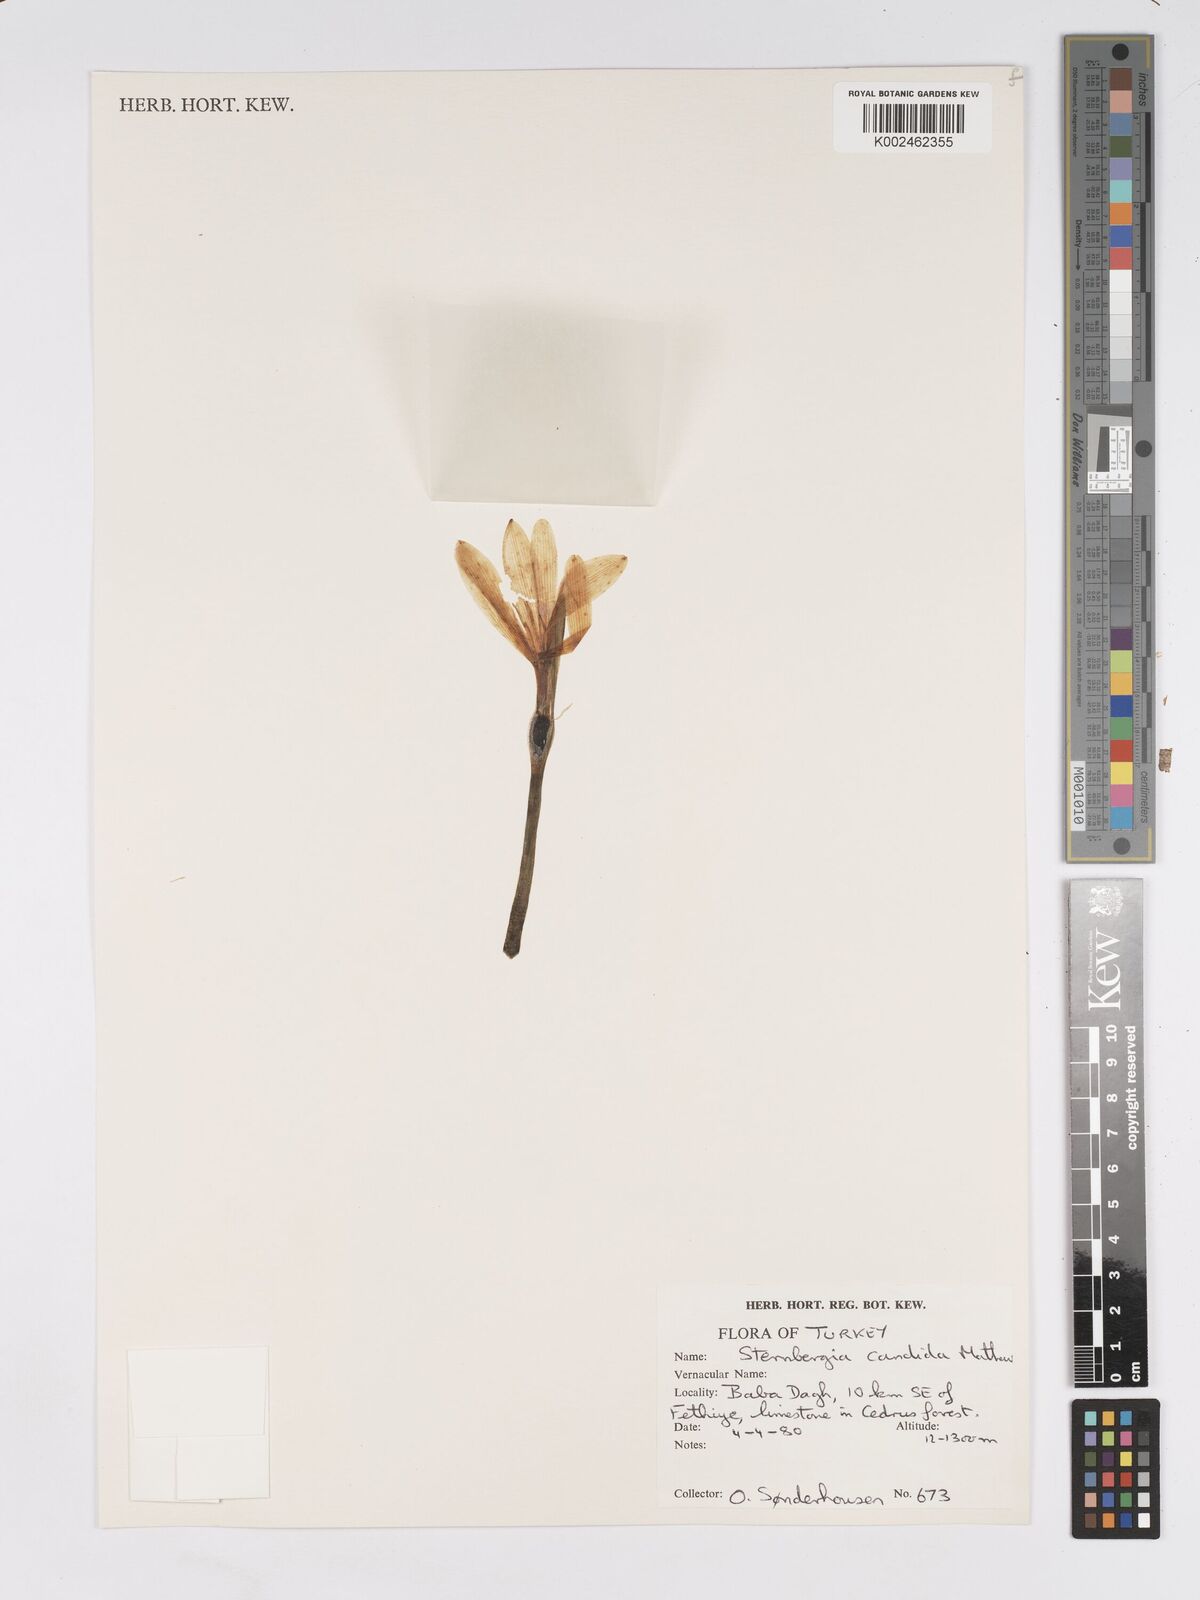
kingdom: Plantae
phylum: Tracheophyta
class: Liliopsida
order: Asparagales
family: Amaryllidaceae
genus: Sternbergia
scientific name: Sternbergia candida
